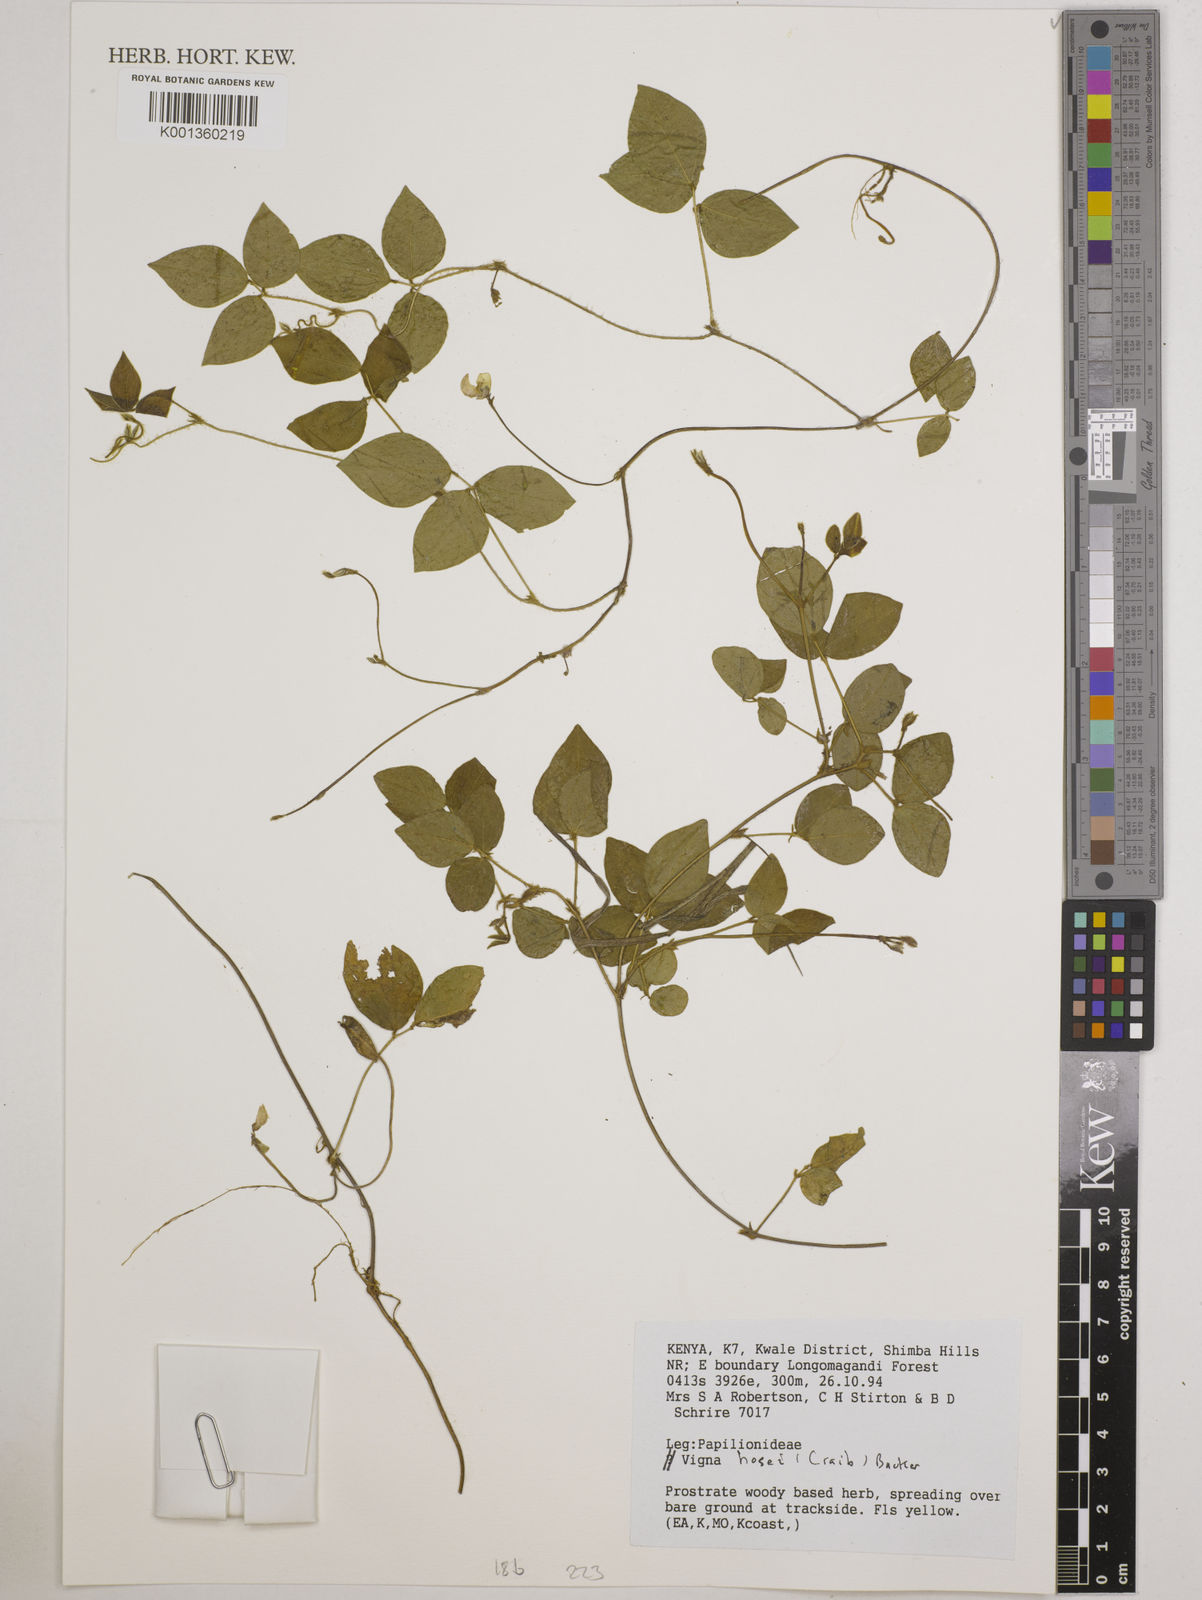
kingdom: Plantae
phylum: Tracheophyta
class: Magnoliopsida
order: Fabales
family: Fabaceae
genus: Vigna
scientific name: Vigna hosei
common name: Sarawak-bean
